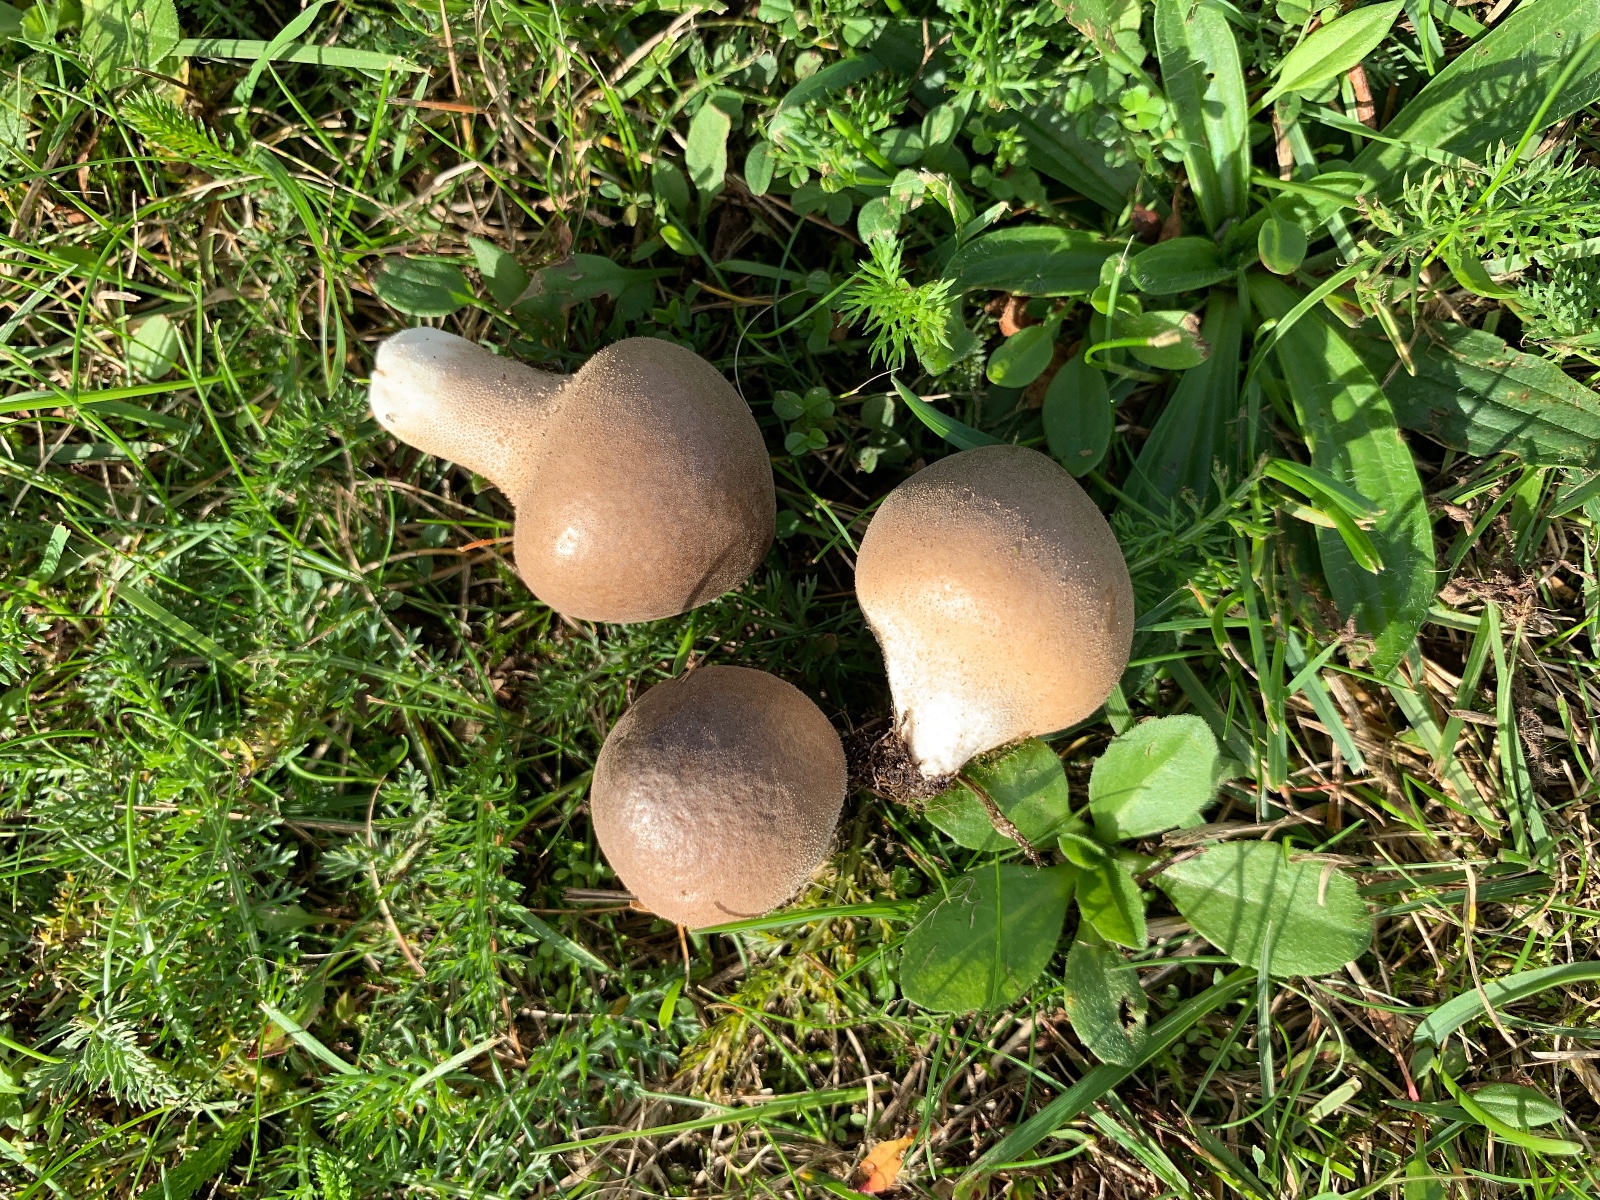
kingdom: Fungi
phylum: Basidiomycota
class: Agaricomycetes
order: Agaricales
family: Lycoperdaceae
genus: Lycoperdon
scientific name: Lycoperdon lividum
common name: mark-støvbold
